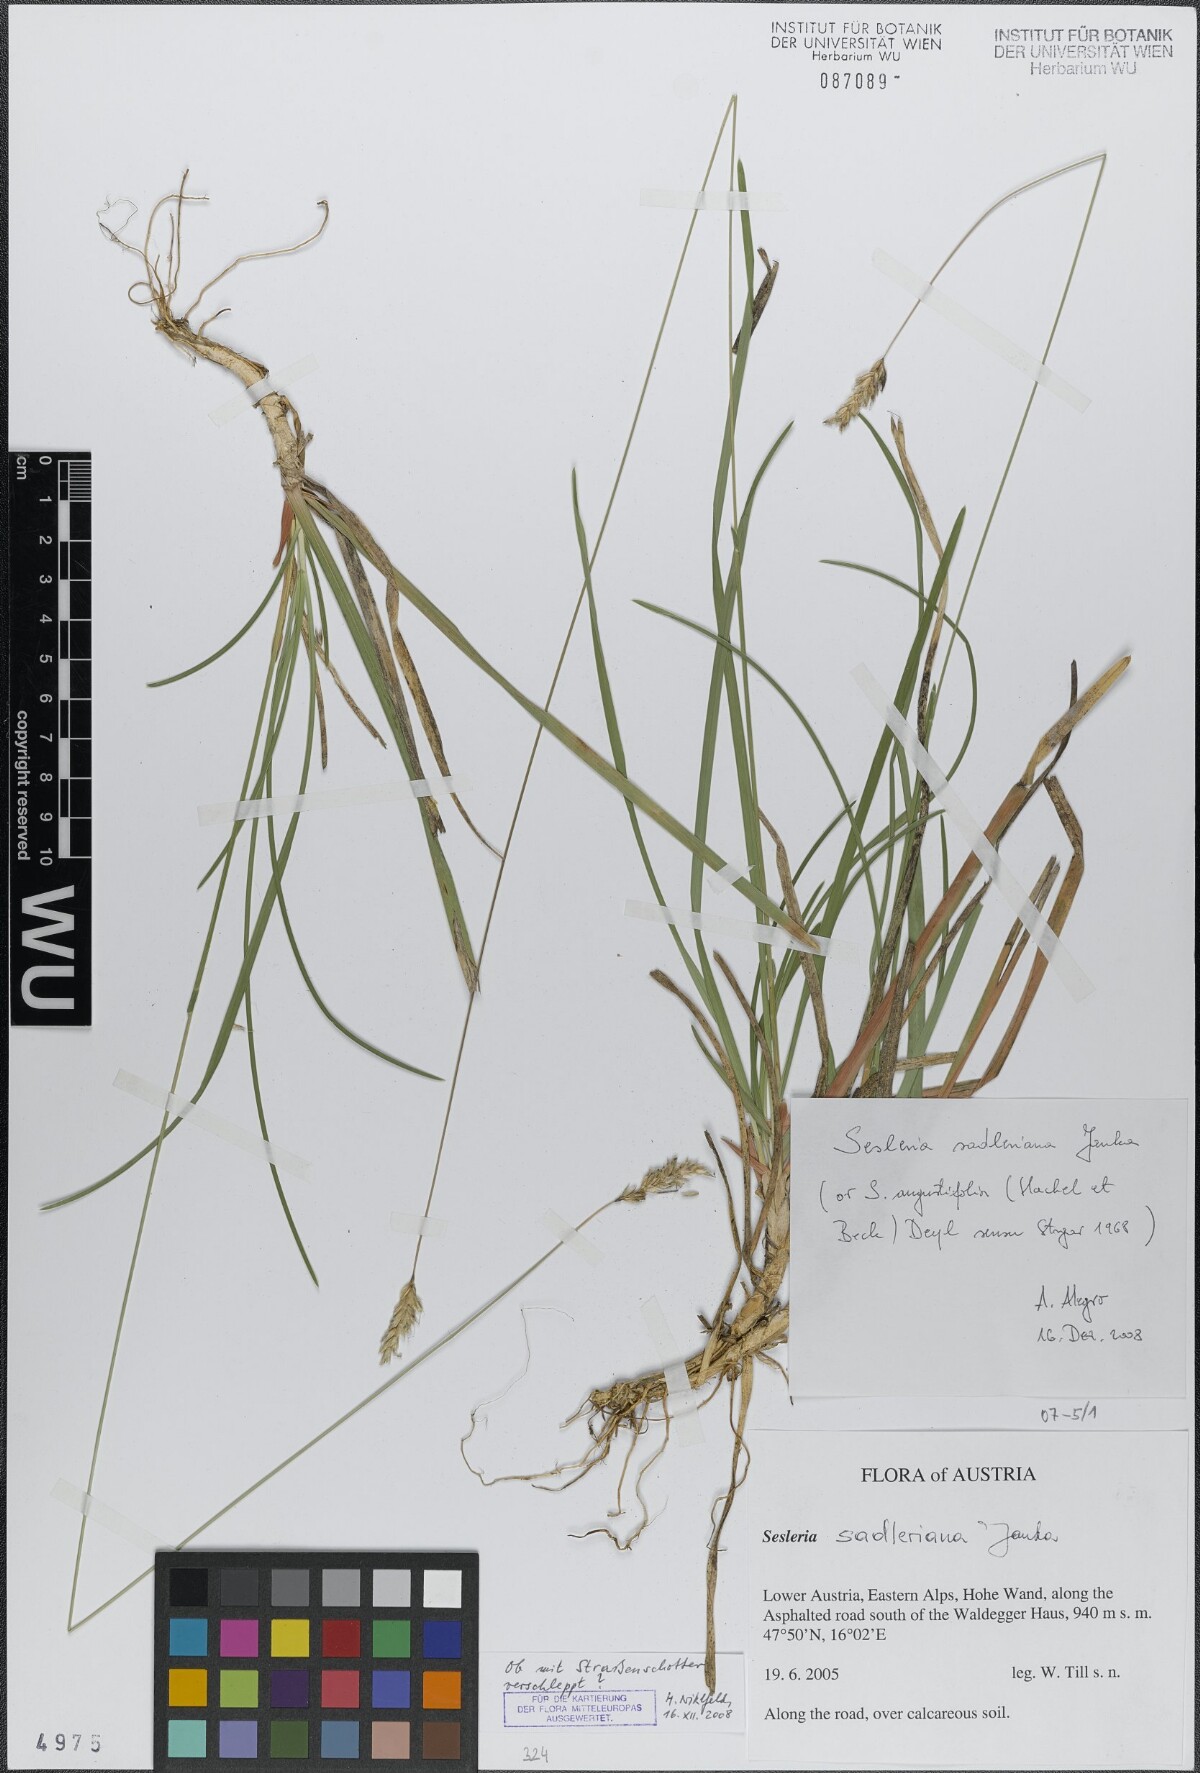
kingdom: Plantae
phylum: Tracheophyta
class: Liliopsida
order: Poales
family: Poaceae
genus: Sesleria
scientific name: Sesleria sadleriana
